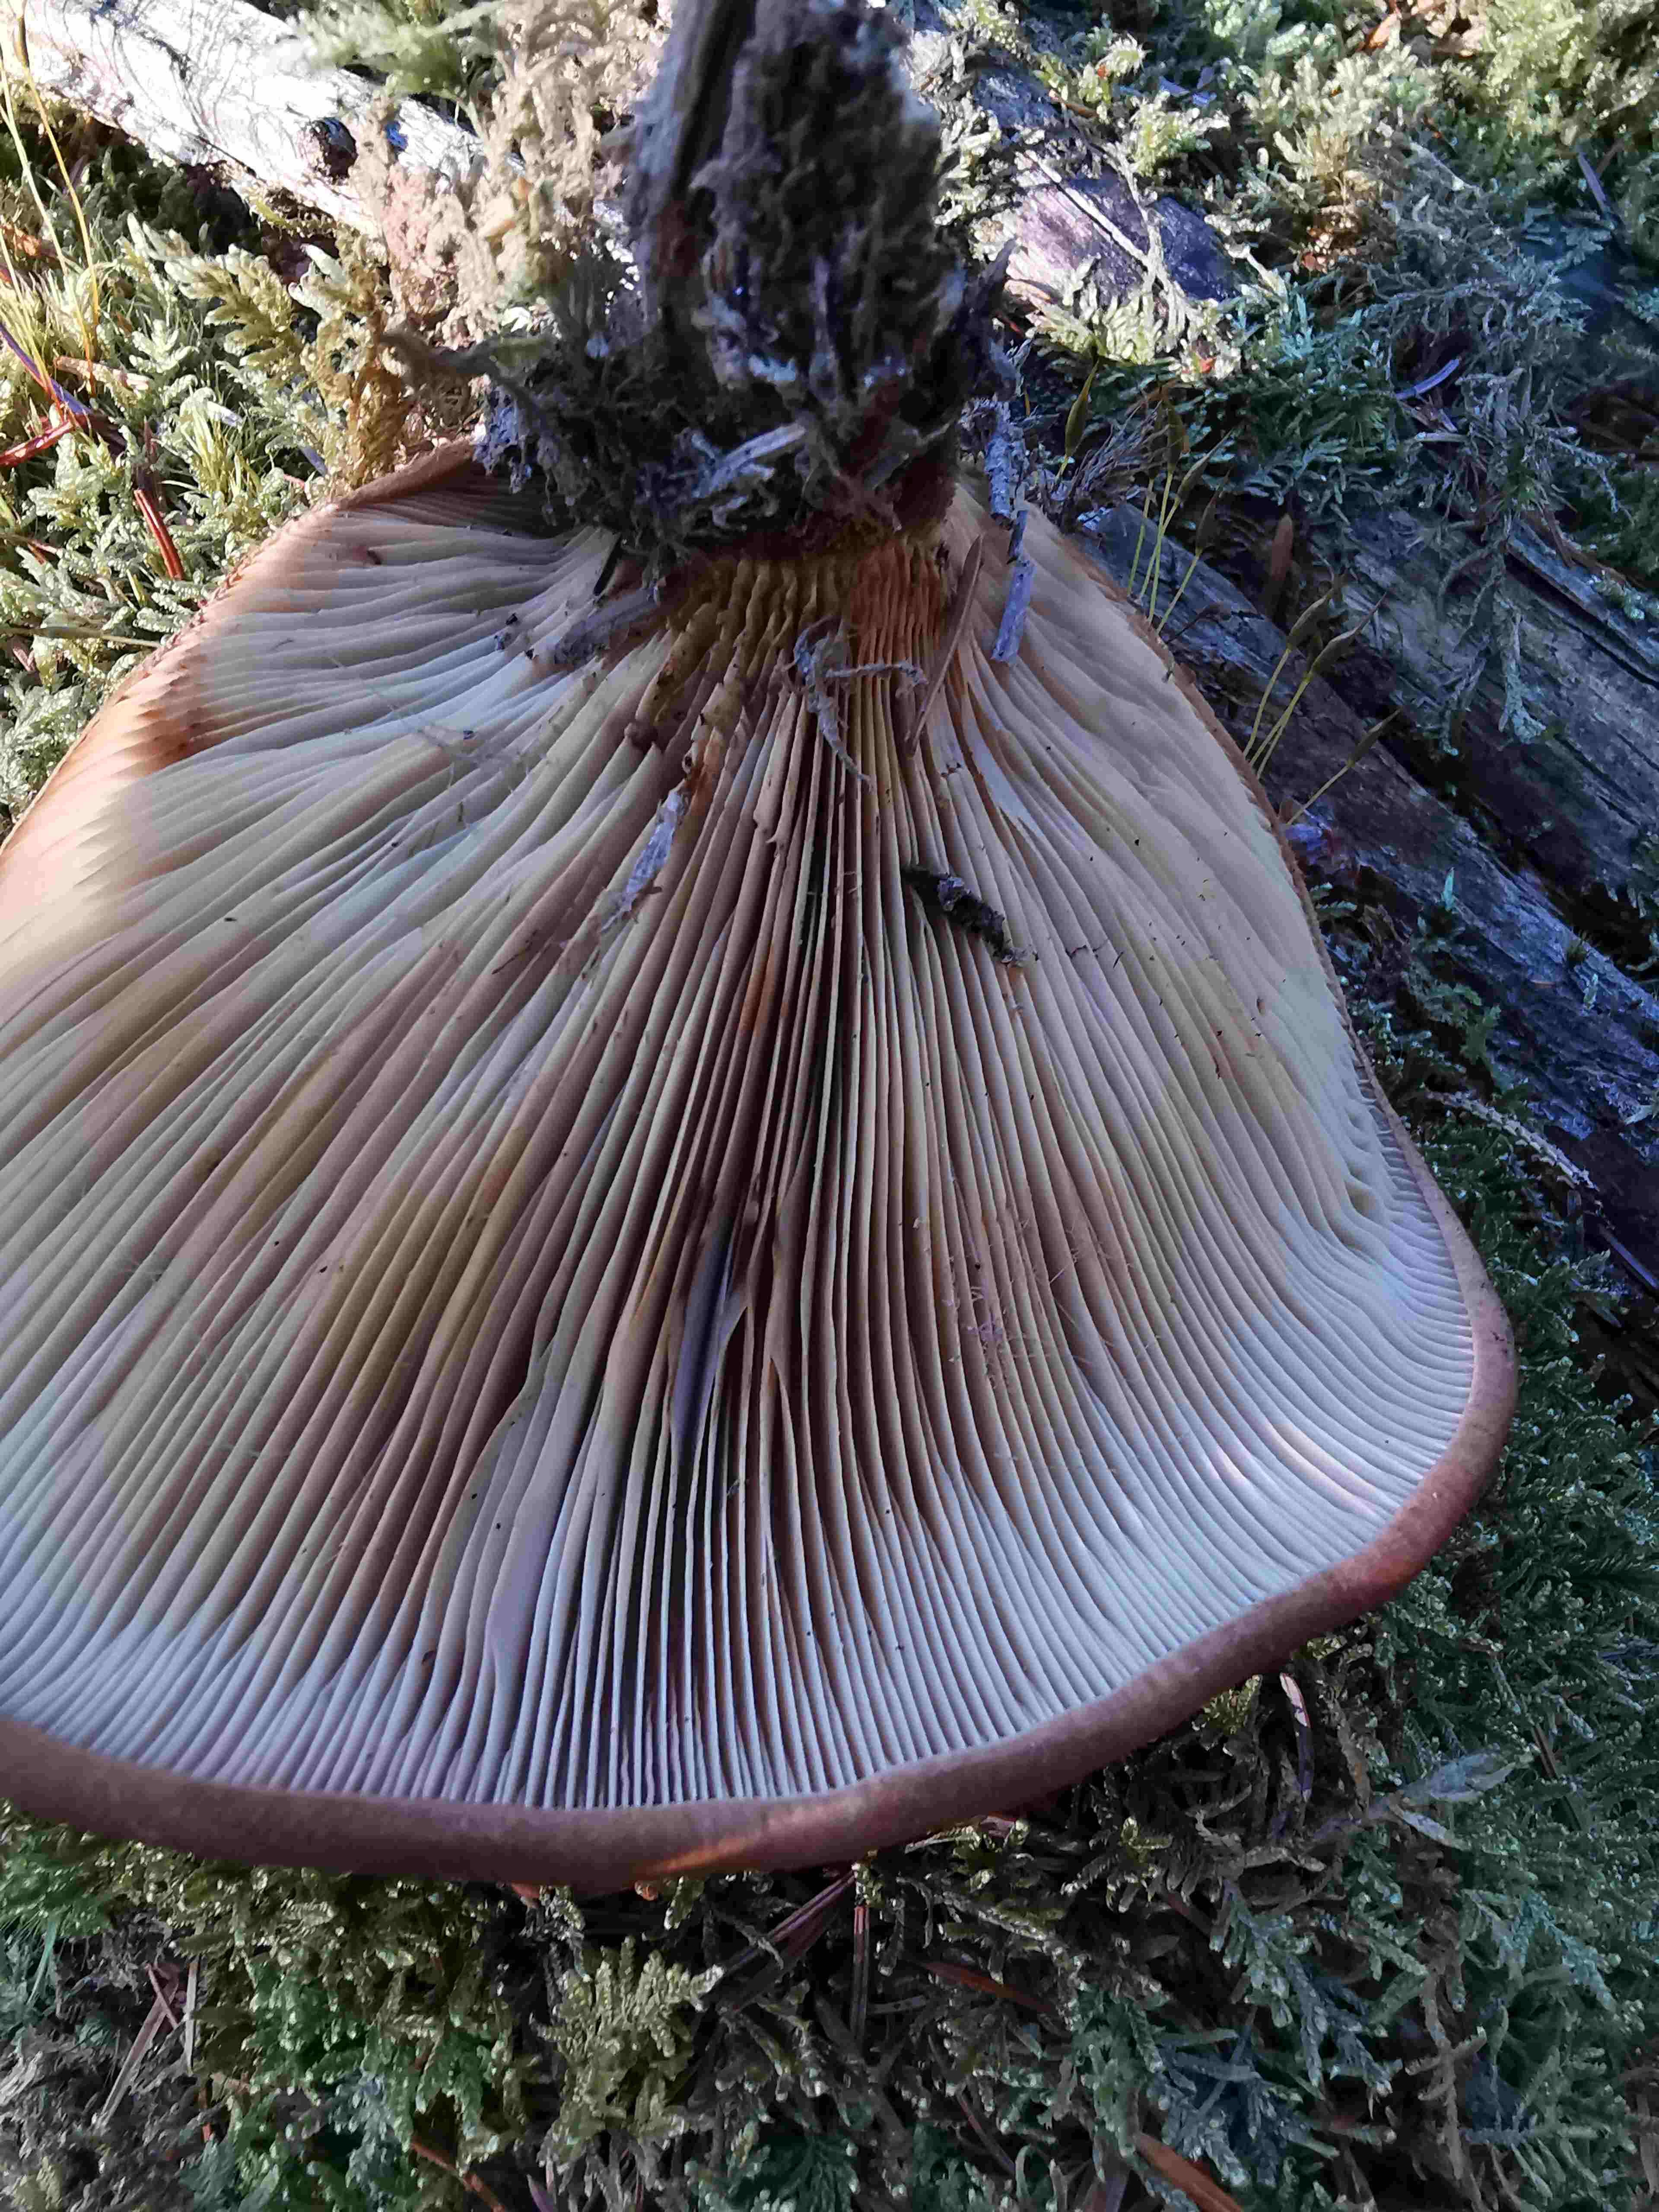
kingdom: Fungi
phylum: Basidiomycota
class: Agaricomycetes
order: Boletales
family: Tapinellaceae
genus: Tapinella
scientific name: Tapinella atrotomentosa
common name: sortfiltet viftesvamp
